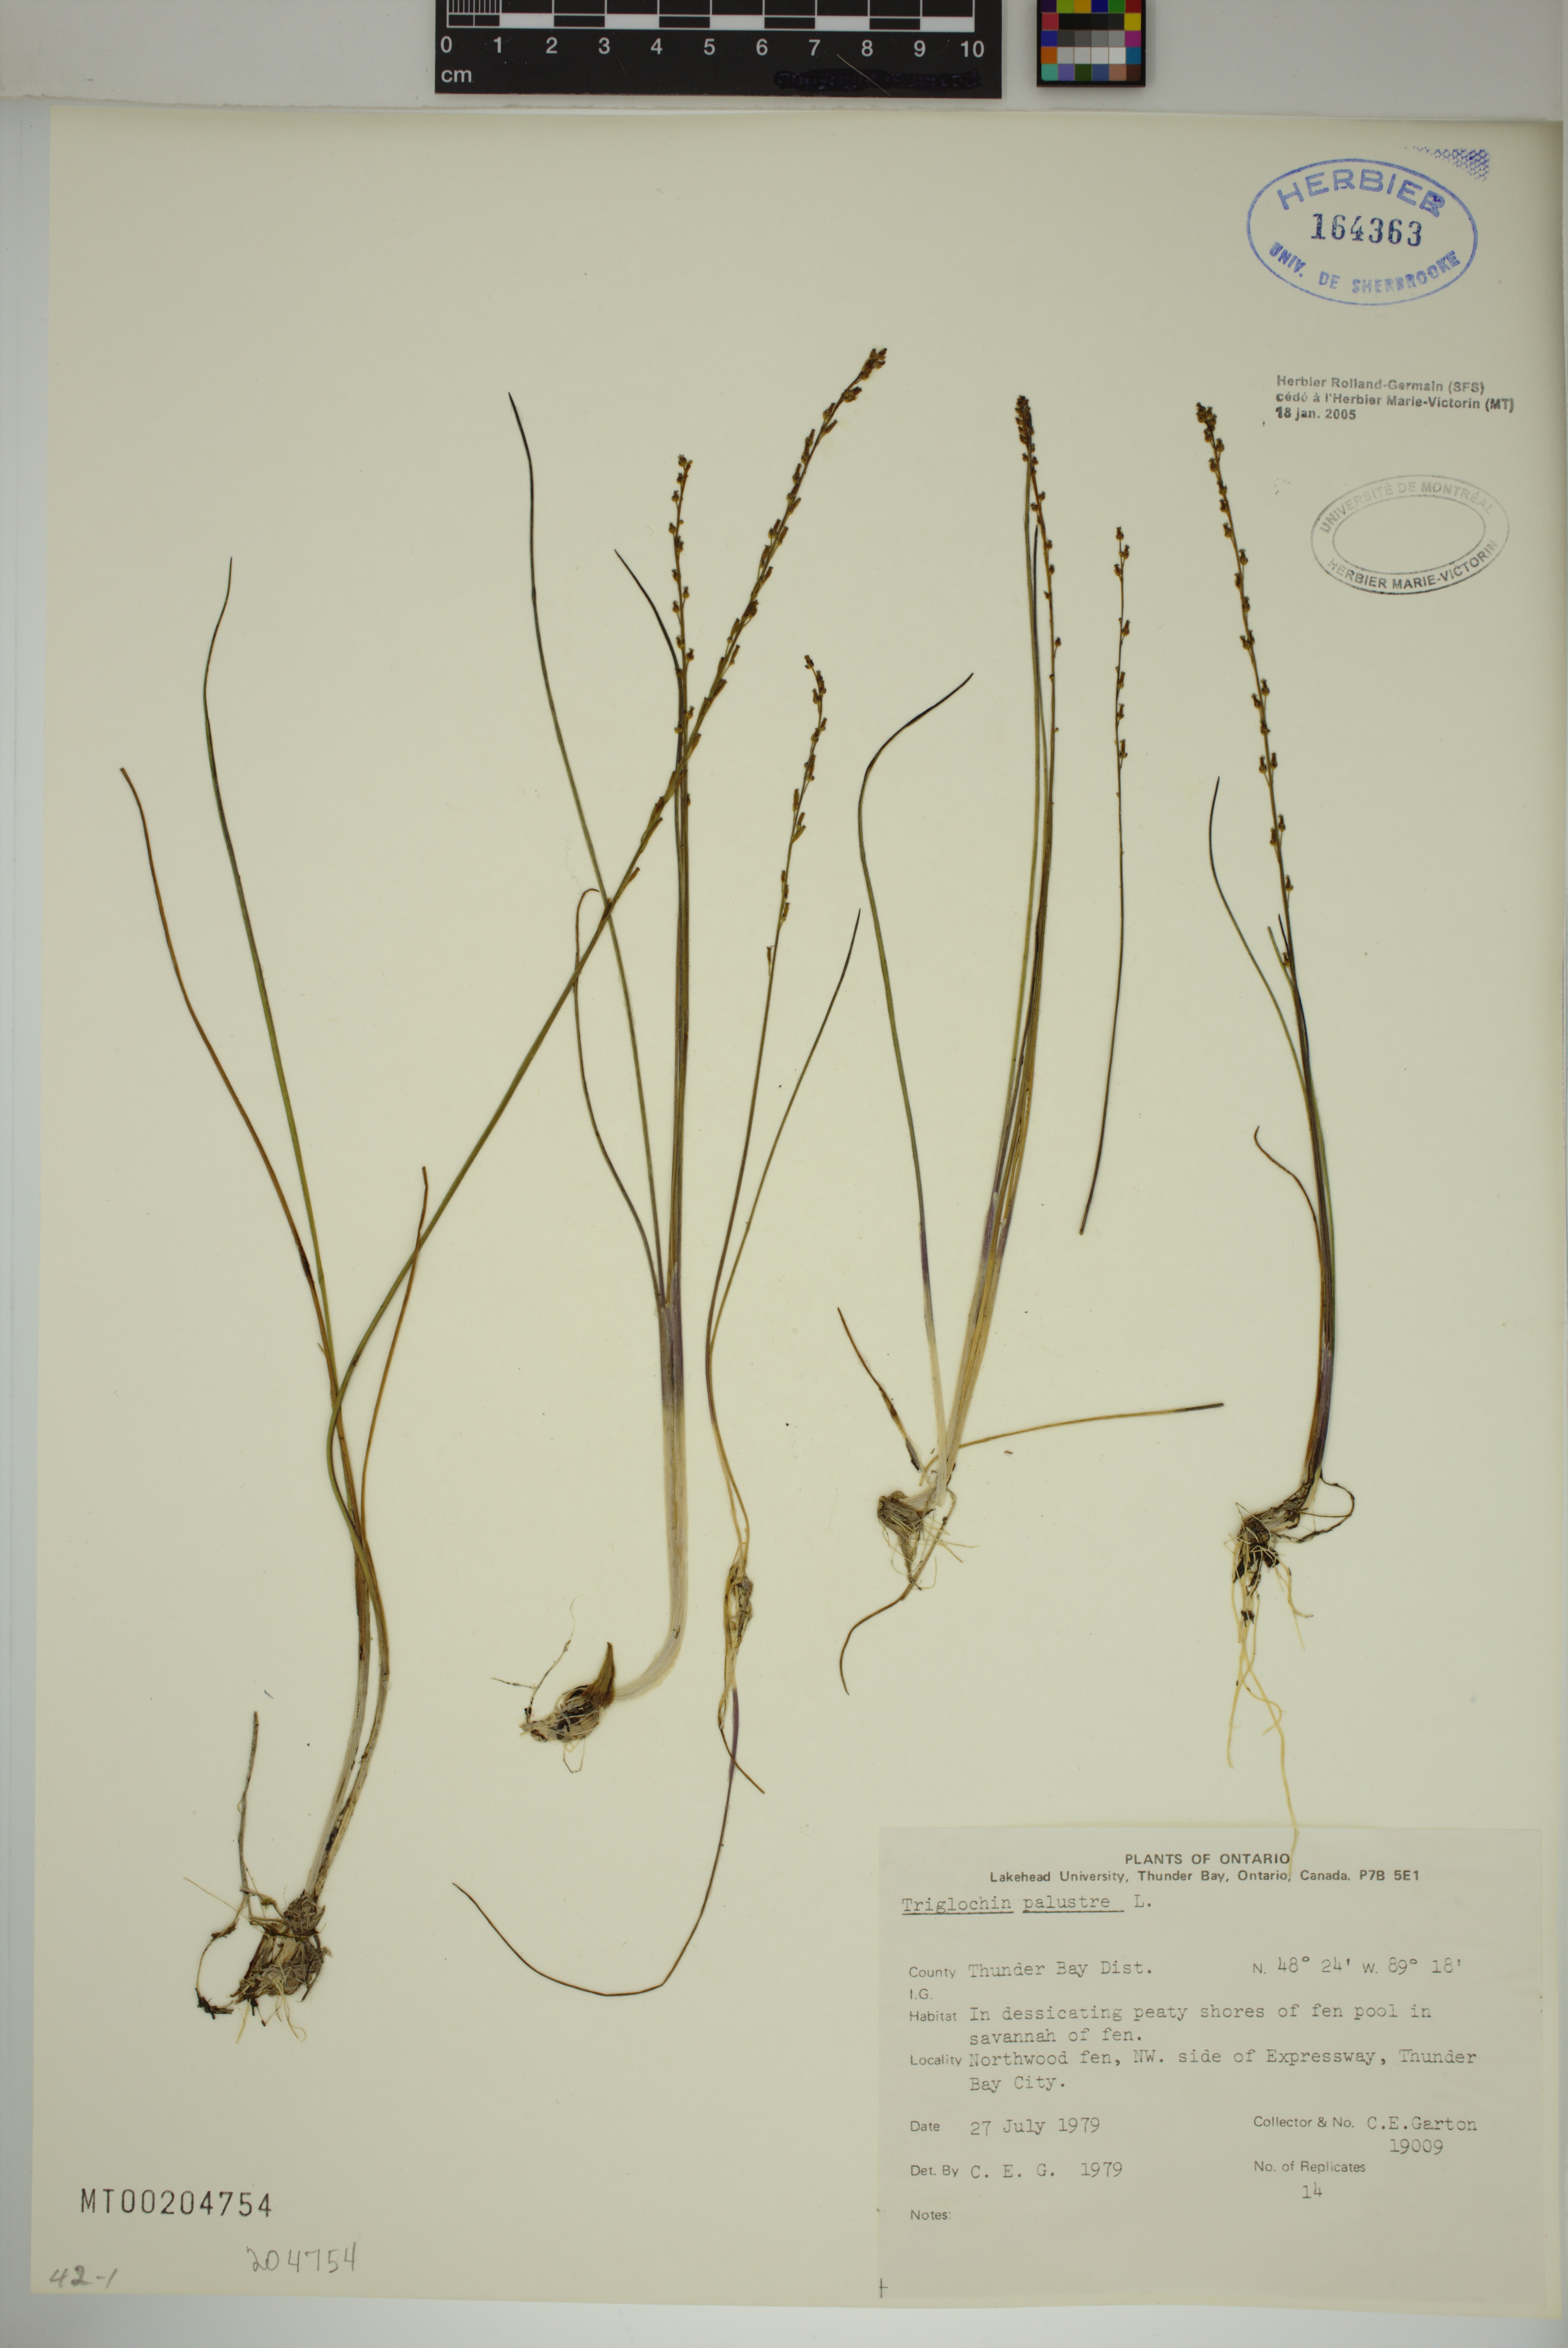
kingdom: Plantae
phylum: Tracheophyta
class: Liliopsida
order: Alismatales
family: Juncaginaceae
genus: Triglochin
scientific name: Triglochin palustris
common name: Marsh arrowgrass
